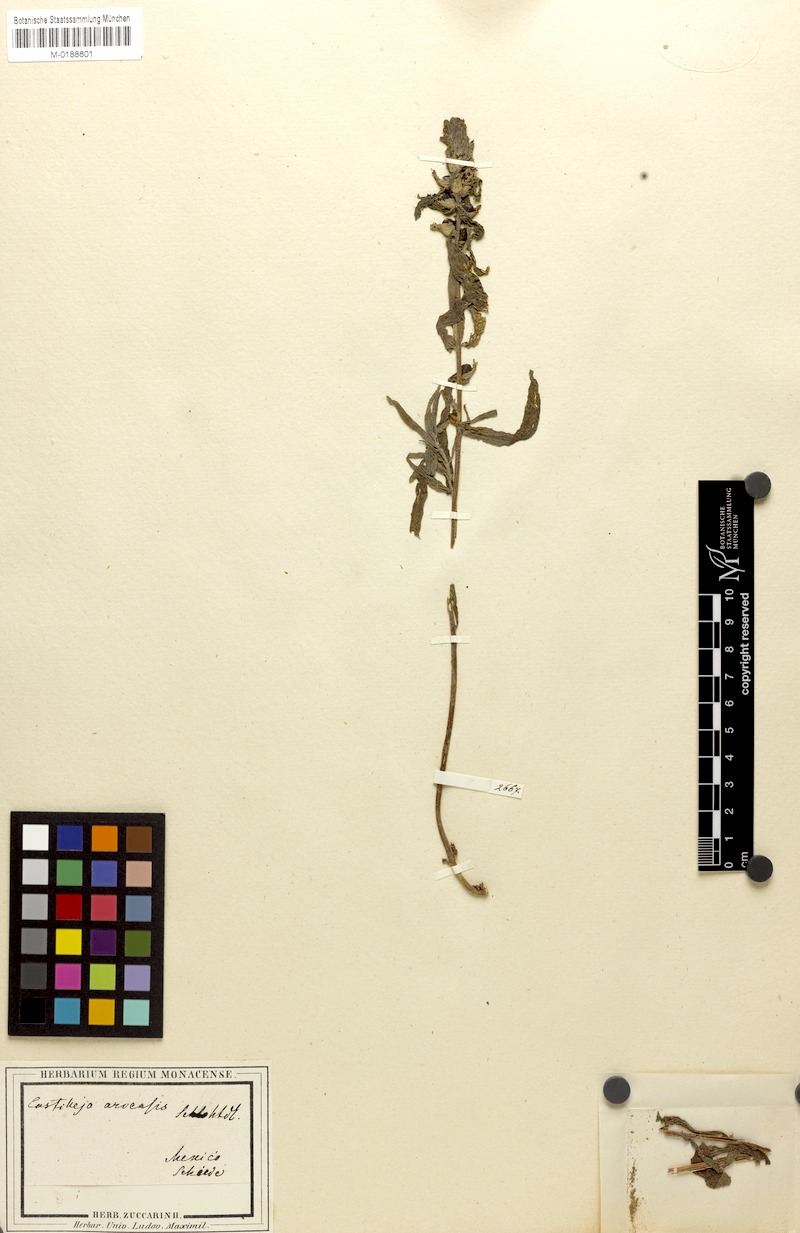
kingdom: Plantae
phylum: Tracheophyta
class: Magnoliopsida
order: Lamiales
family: Orobanchaceae
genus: Castilleja
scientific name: Castilleja scorzonerifolia
